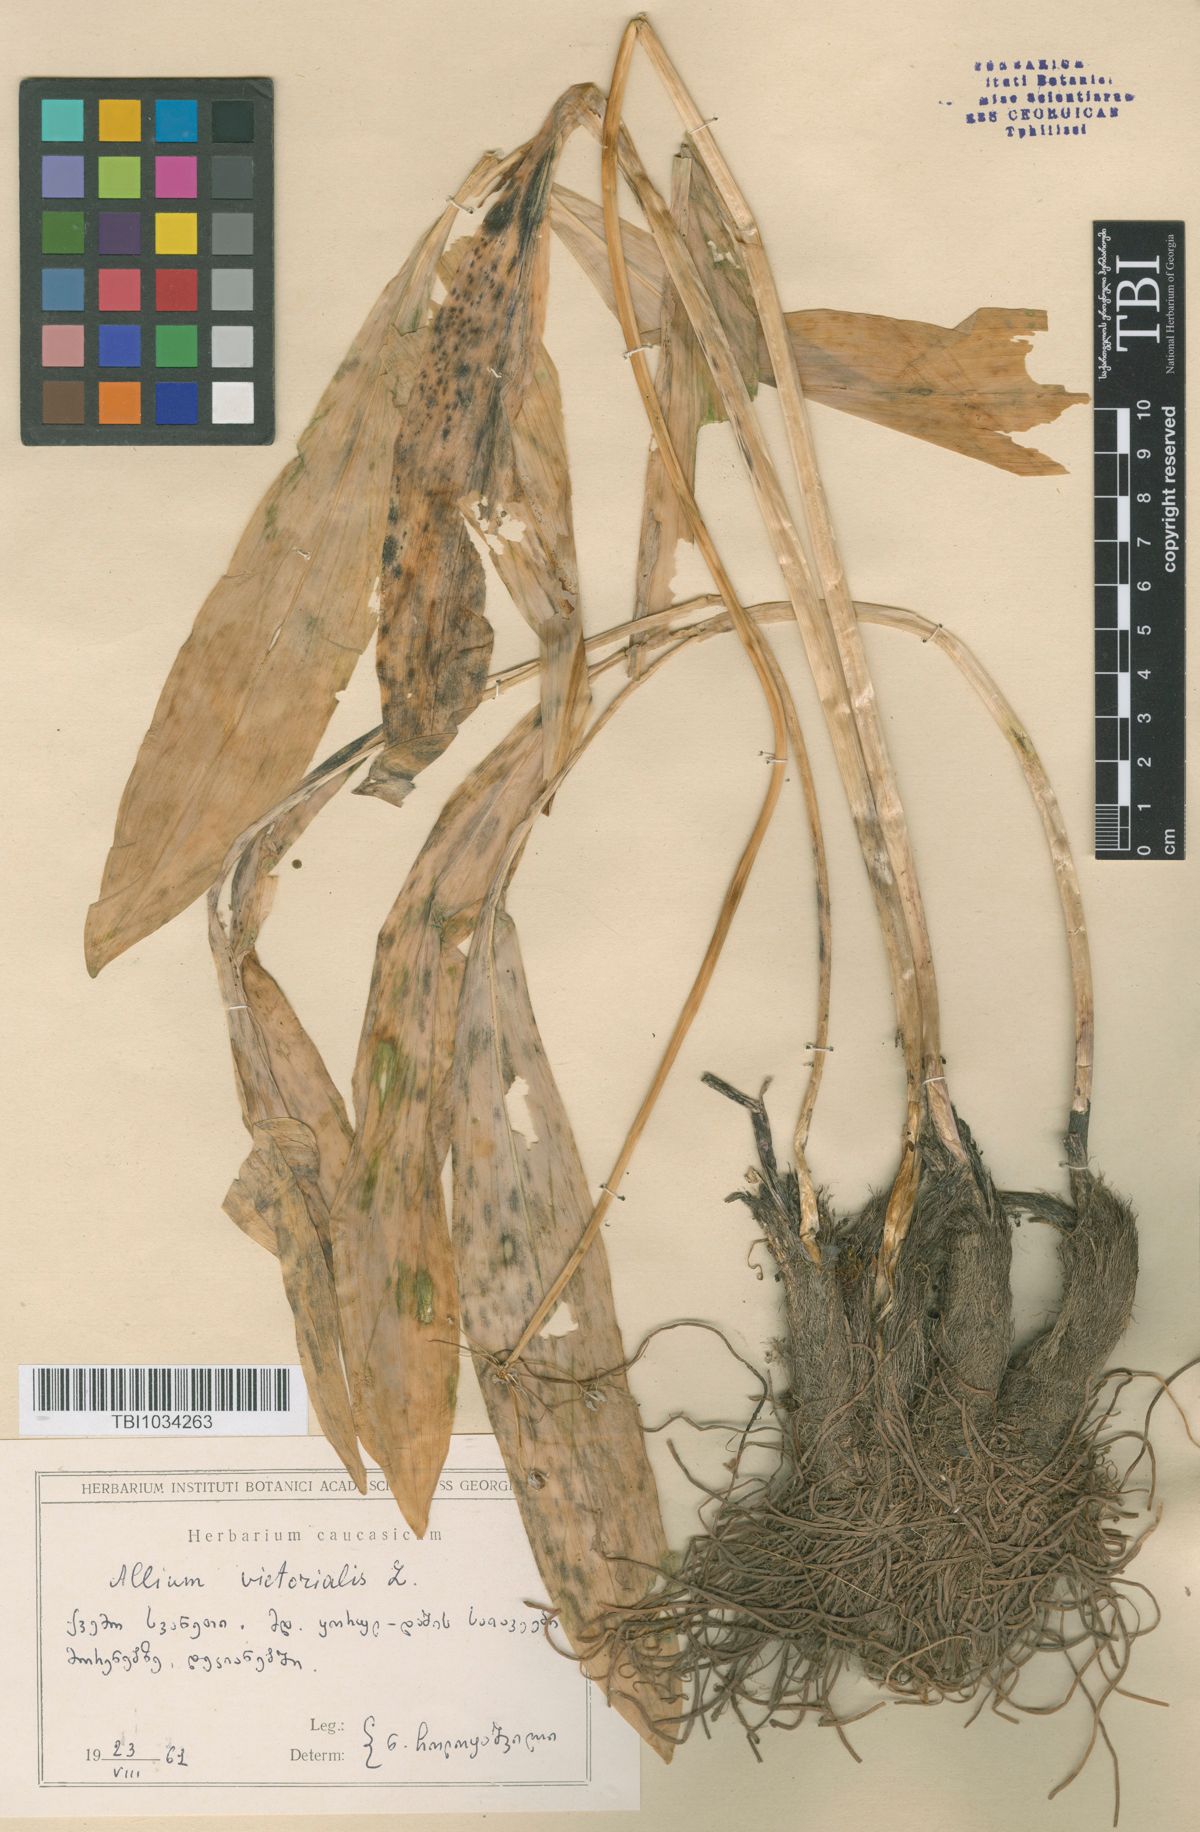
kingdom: Plantae
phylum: Tracheophyta
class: Liliopsida
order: Asparagales
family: Amaryllidaceae
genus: Allium
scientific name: Allium victorialis
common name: Alpine leek
